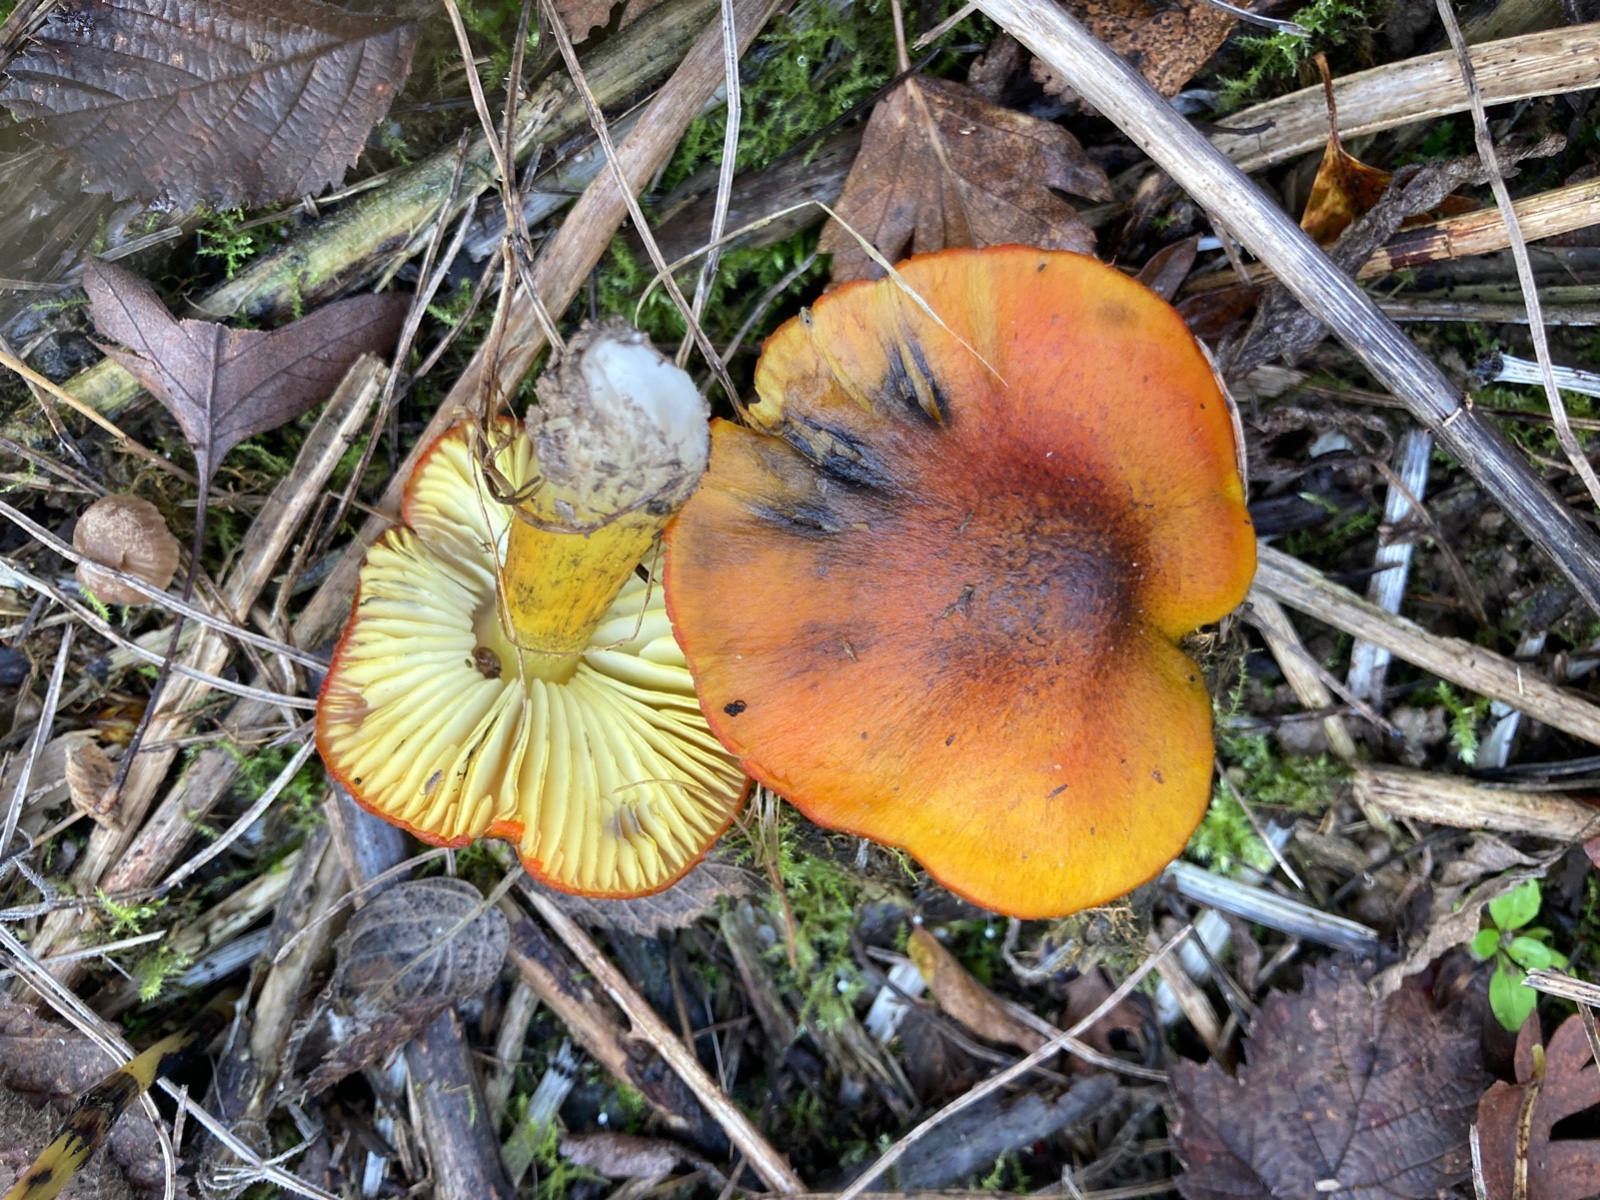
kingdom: Fungi
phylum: Basidiomycota
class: Agaricomycetes
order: Agaricales
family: Hygrophoraceae
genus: Hygrocybe
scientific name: Hygrocybe conica
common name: Blackening wax-cap
